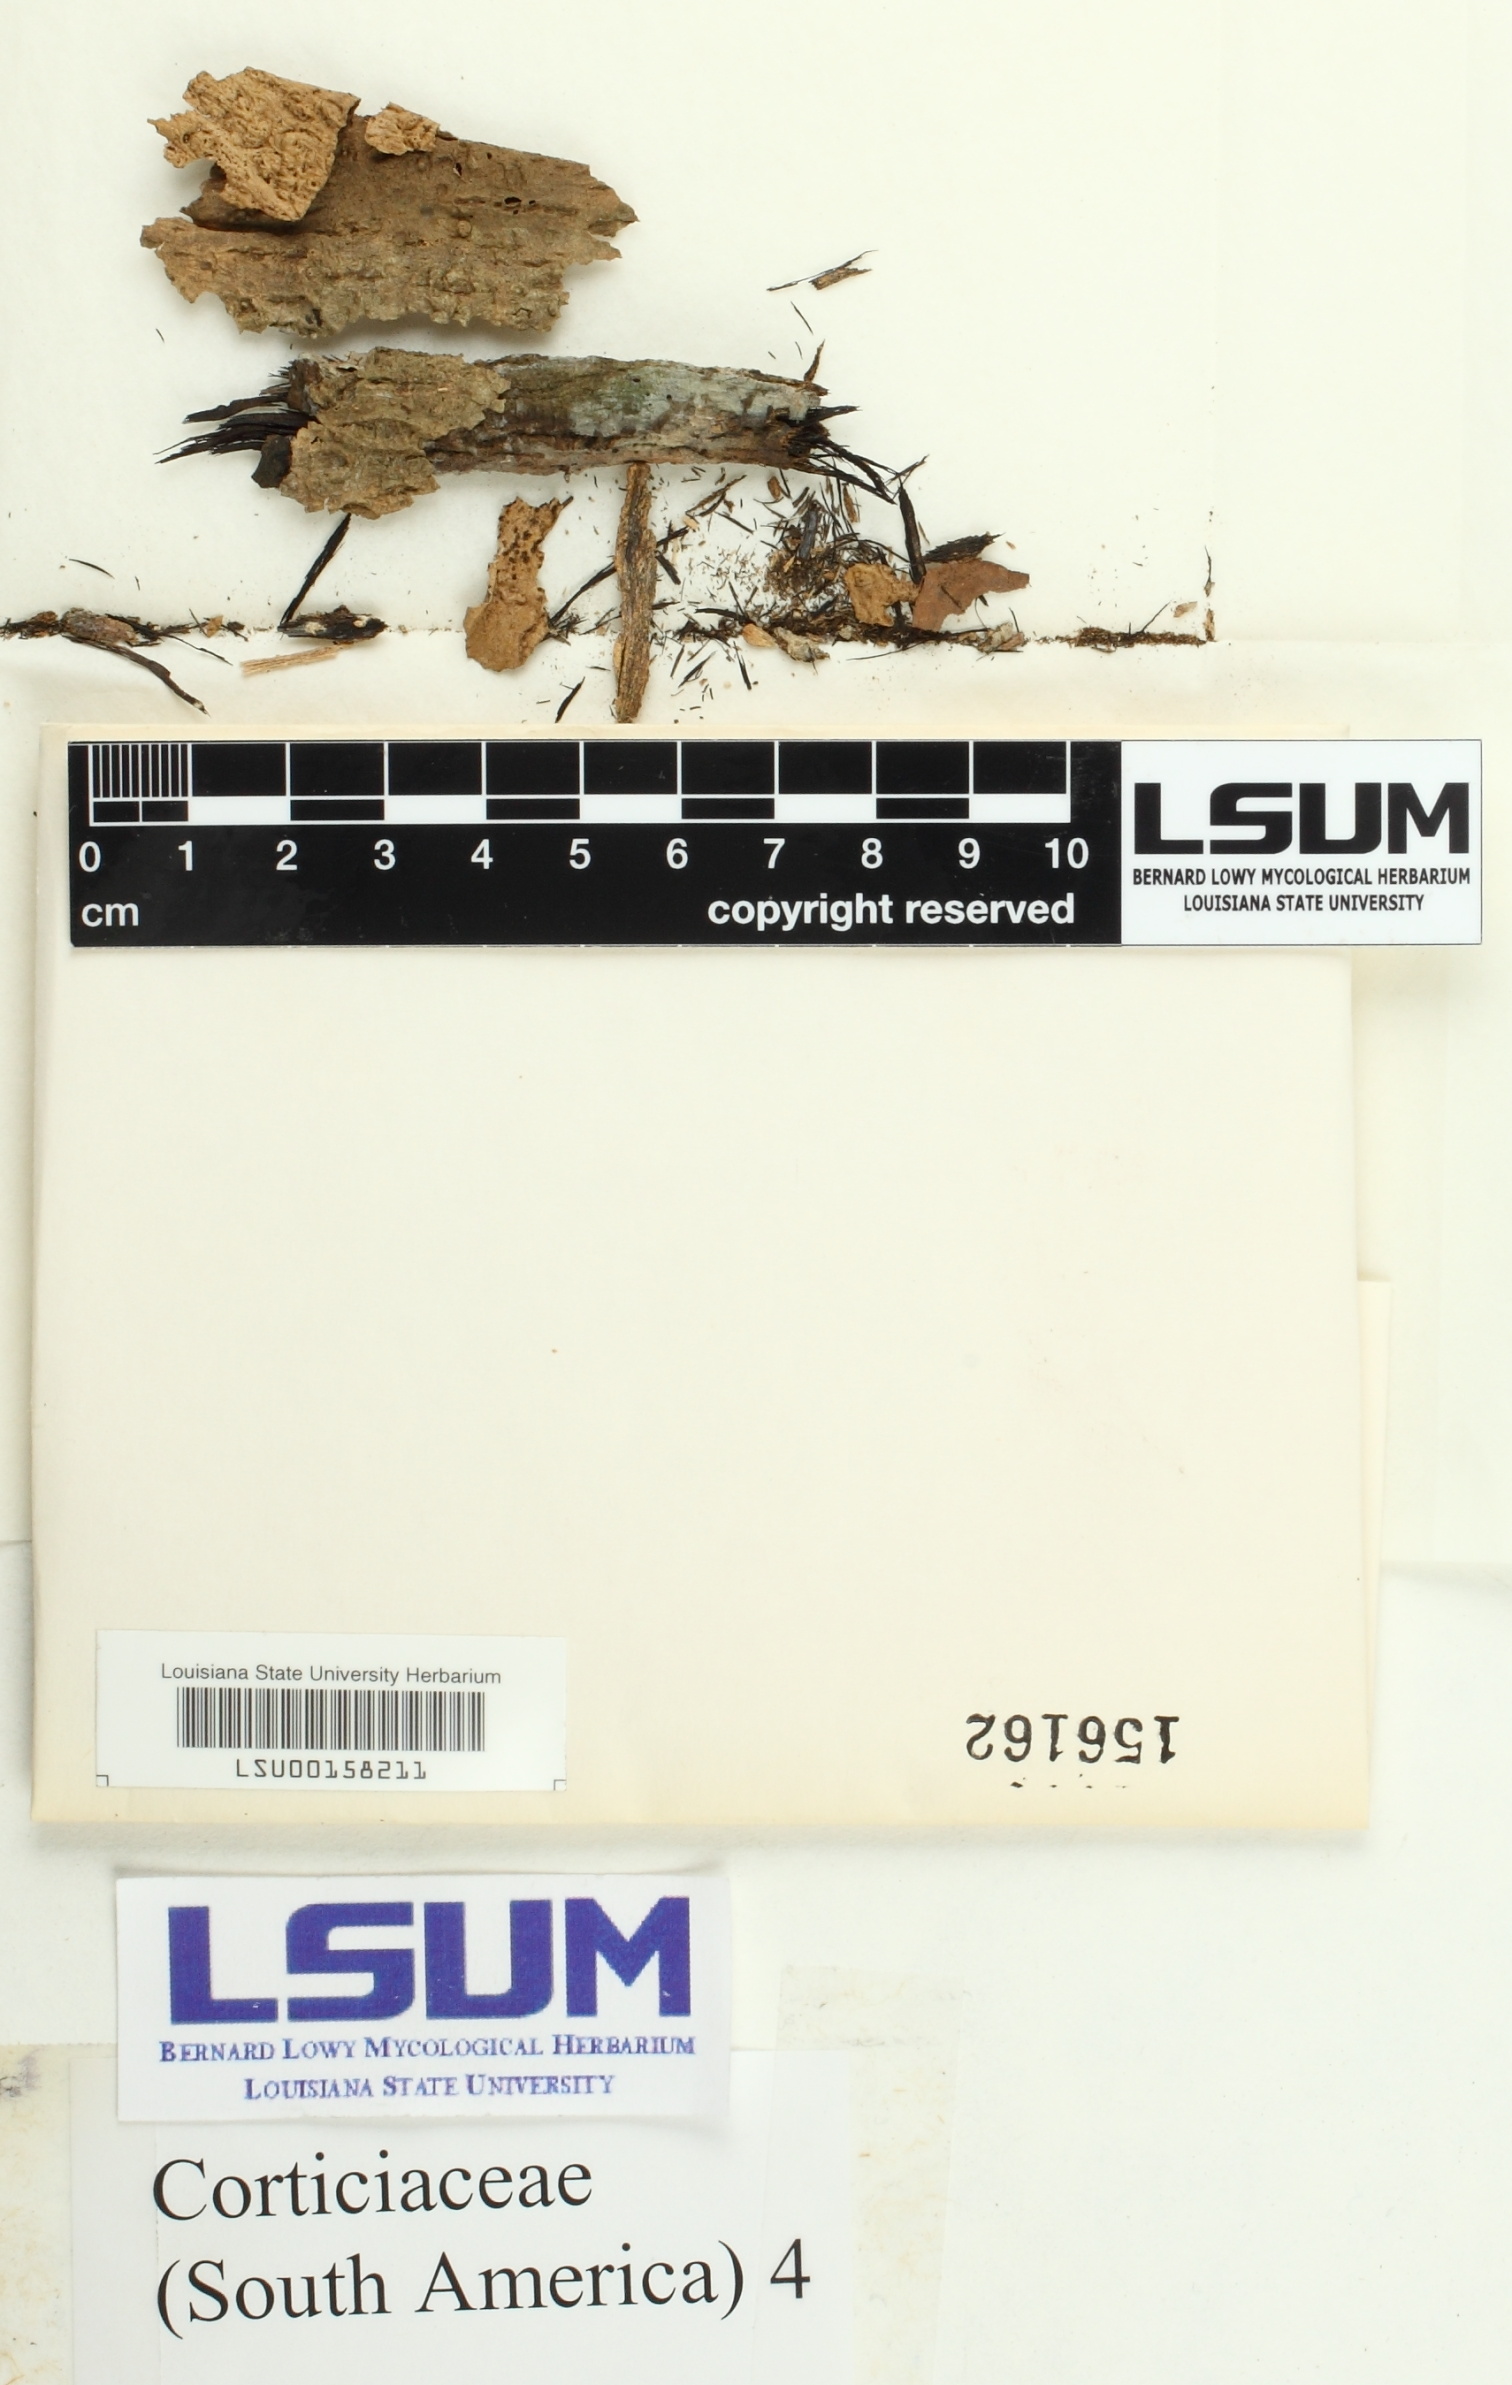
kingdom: Fungi
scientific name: Fungi
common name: Fungi
